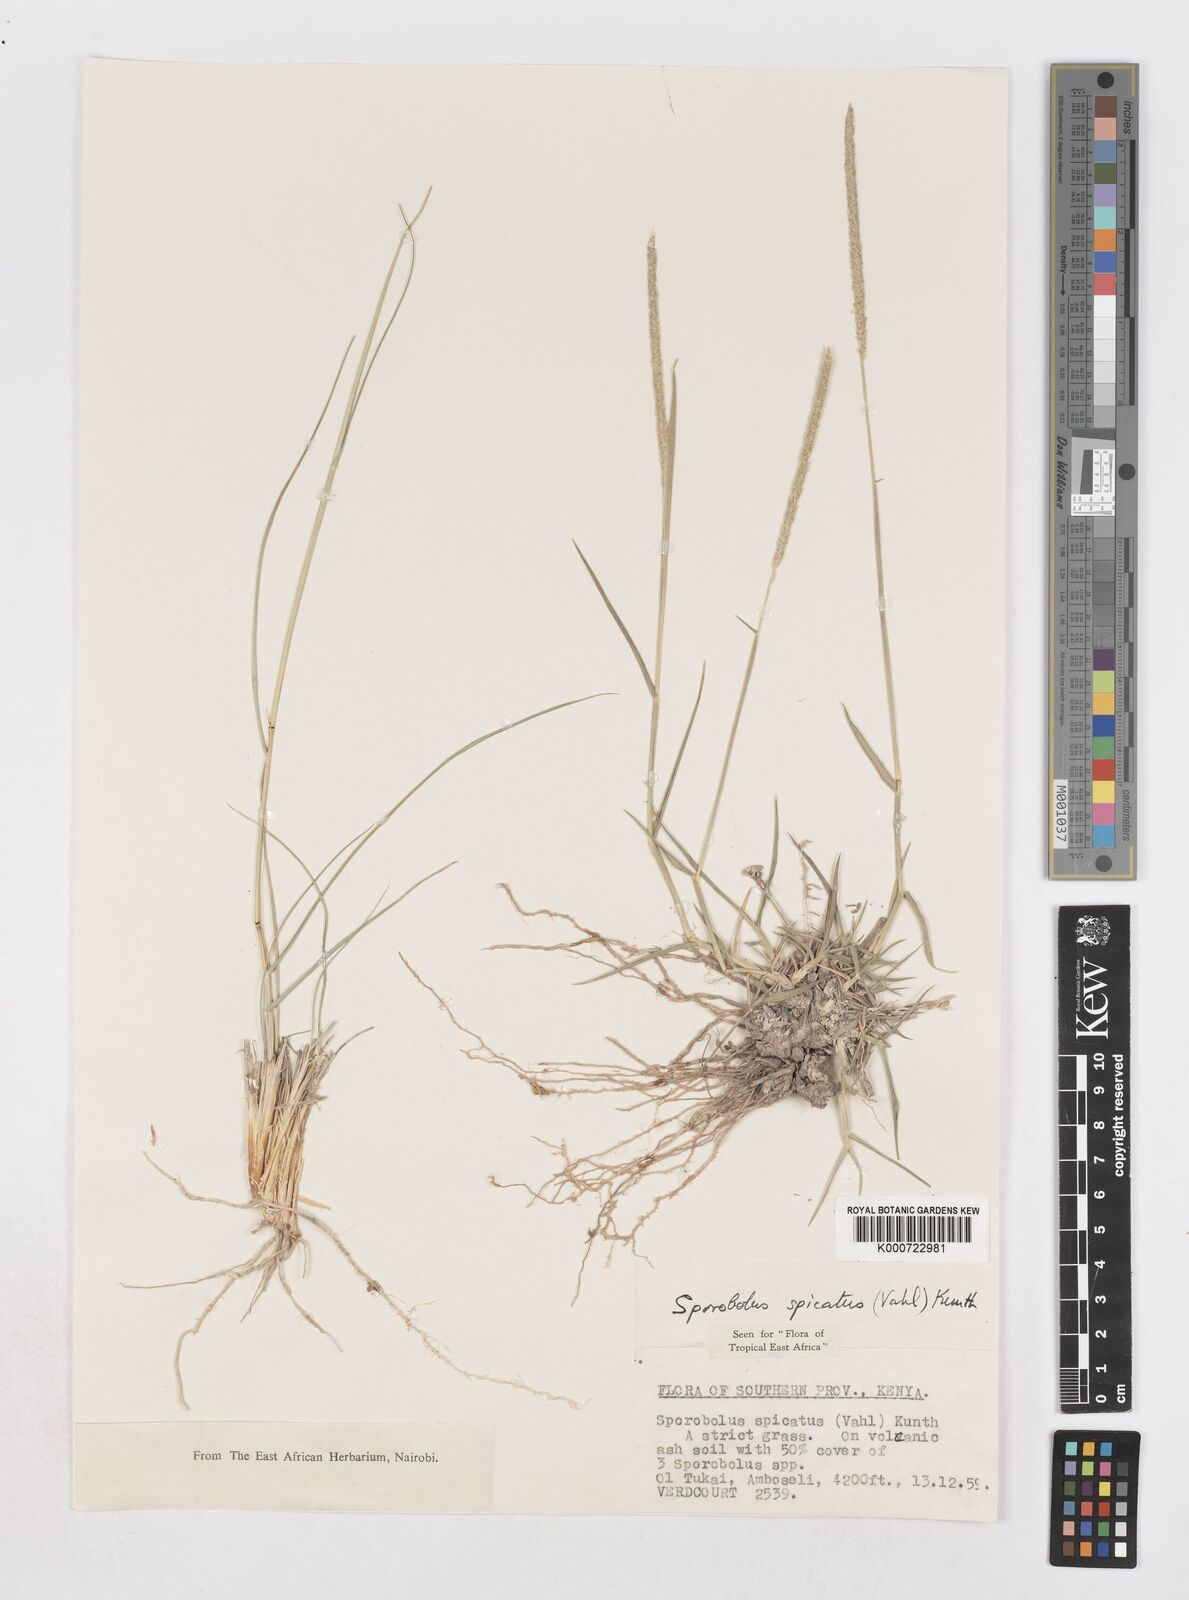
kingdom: Plantae
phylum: Tracheophyta
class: Liliopsida
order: Poales
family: Poaceae
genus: Sporobolus
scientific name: Sporobolus spicatus
